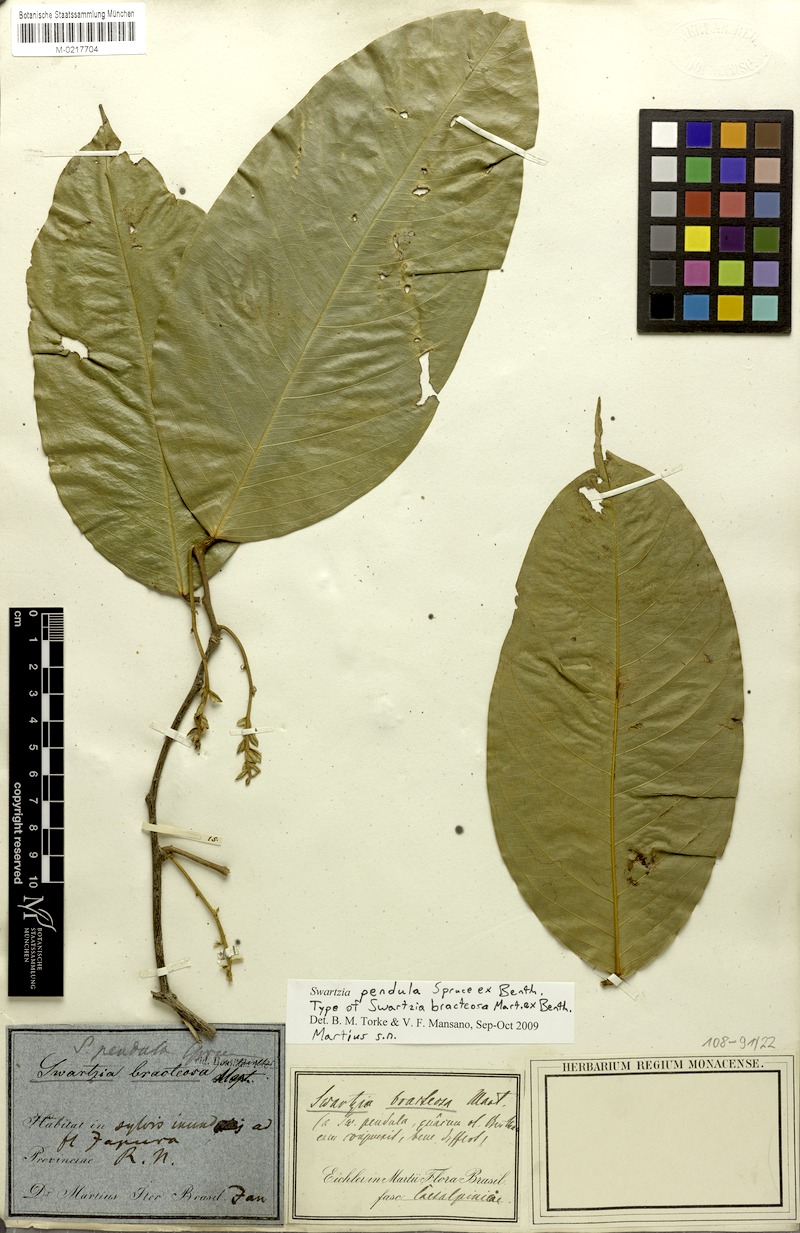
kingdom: Plantae
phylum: Tracheophyta
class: Magnoliopsida
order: Fabales
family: Fabaceae
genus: Swartzia
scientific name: Swartzia pendula
